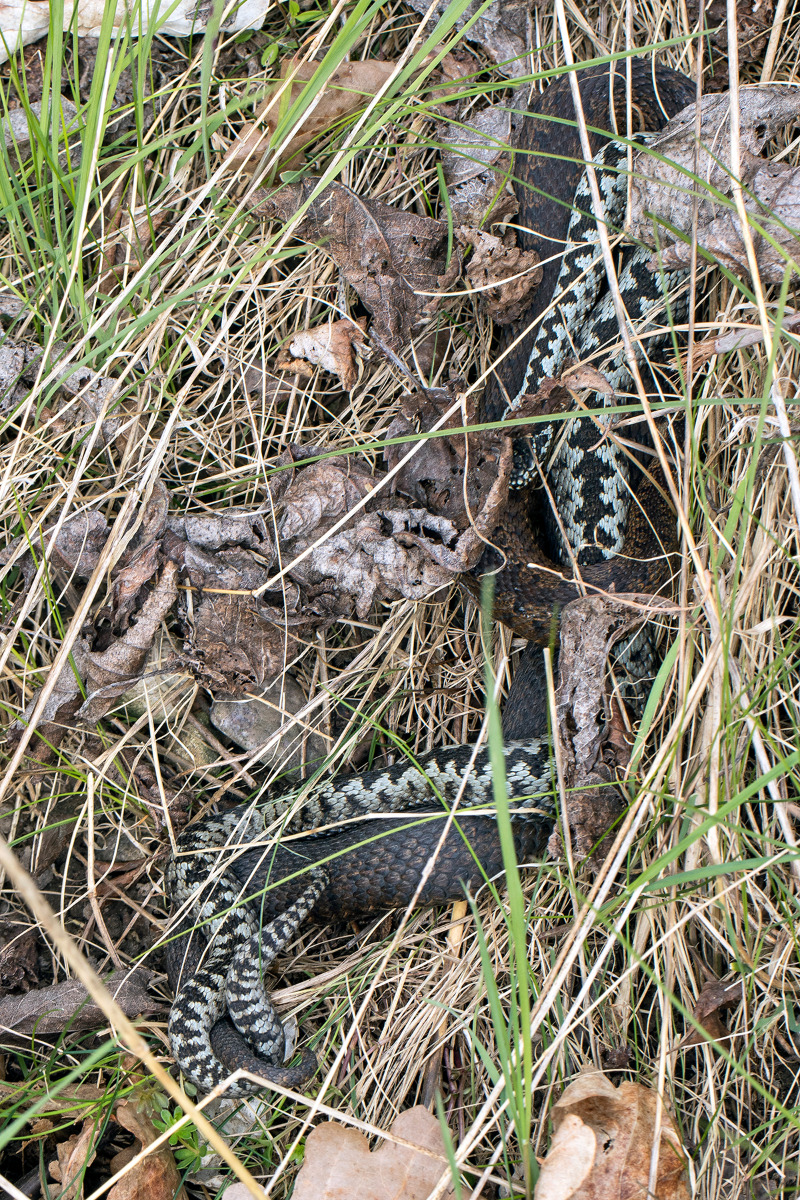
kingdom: Animalia
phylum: Chordata
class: Squamata
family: Viperidae
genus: Vipera
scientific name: Vipera berus
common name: Hugorm
